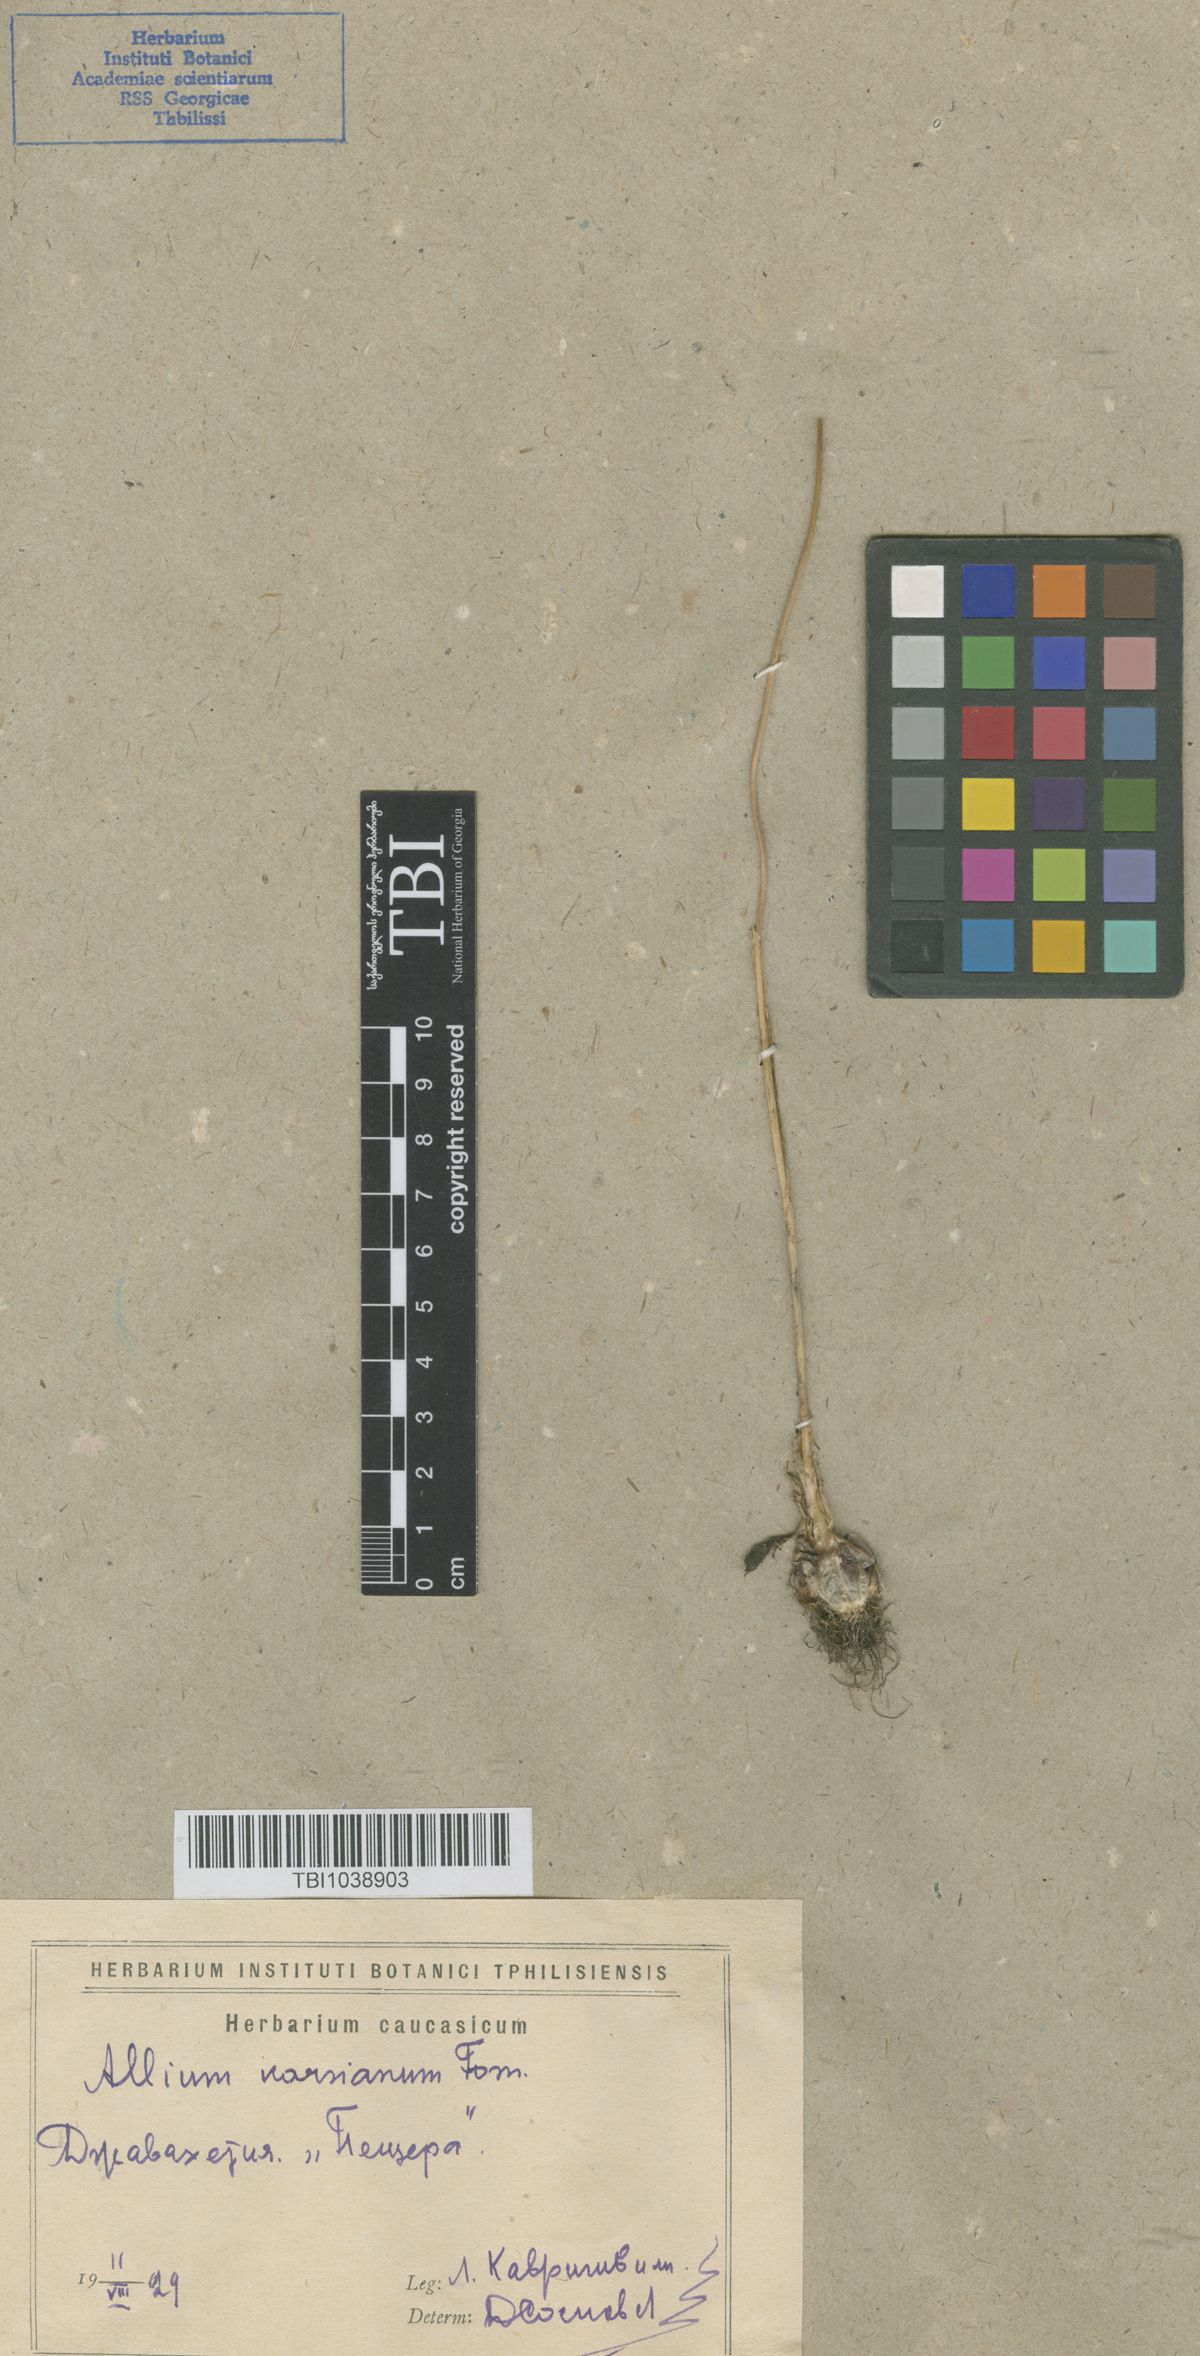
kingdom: Plantae
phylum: Tracheophyta
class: Liliopsida
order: Asparagales
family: Amaryllidaceae
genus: Allium
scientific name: Allium paniculatum
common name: Pale garlic
